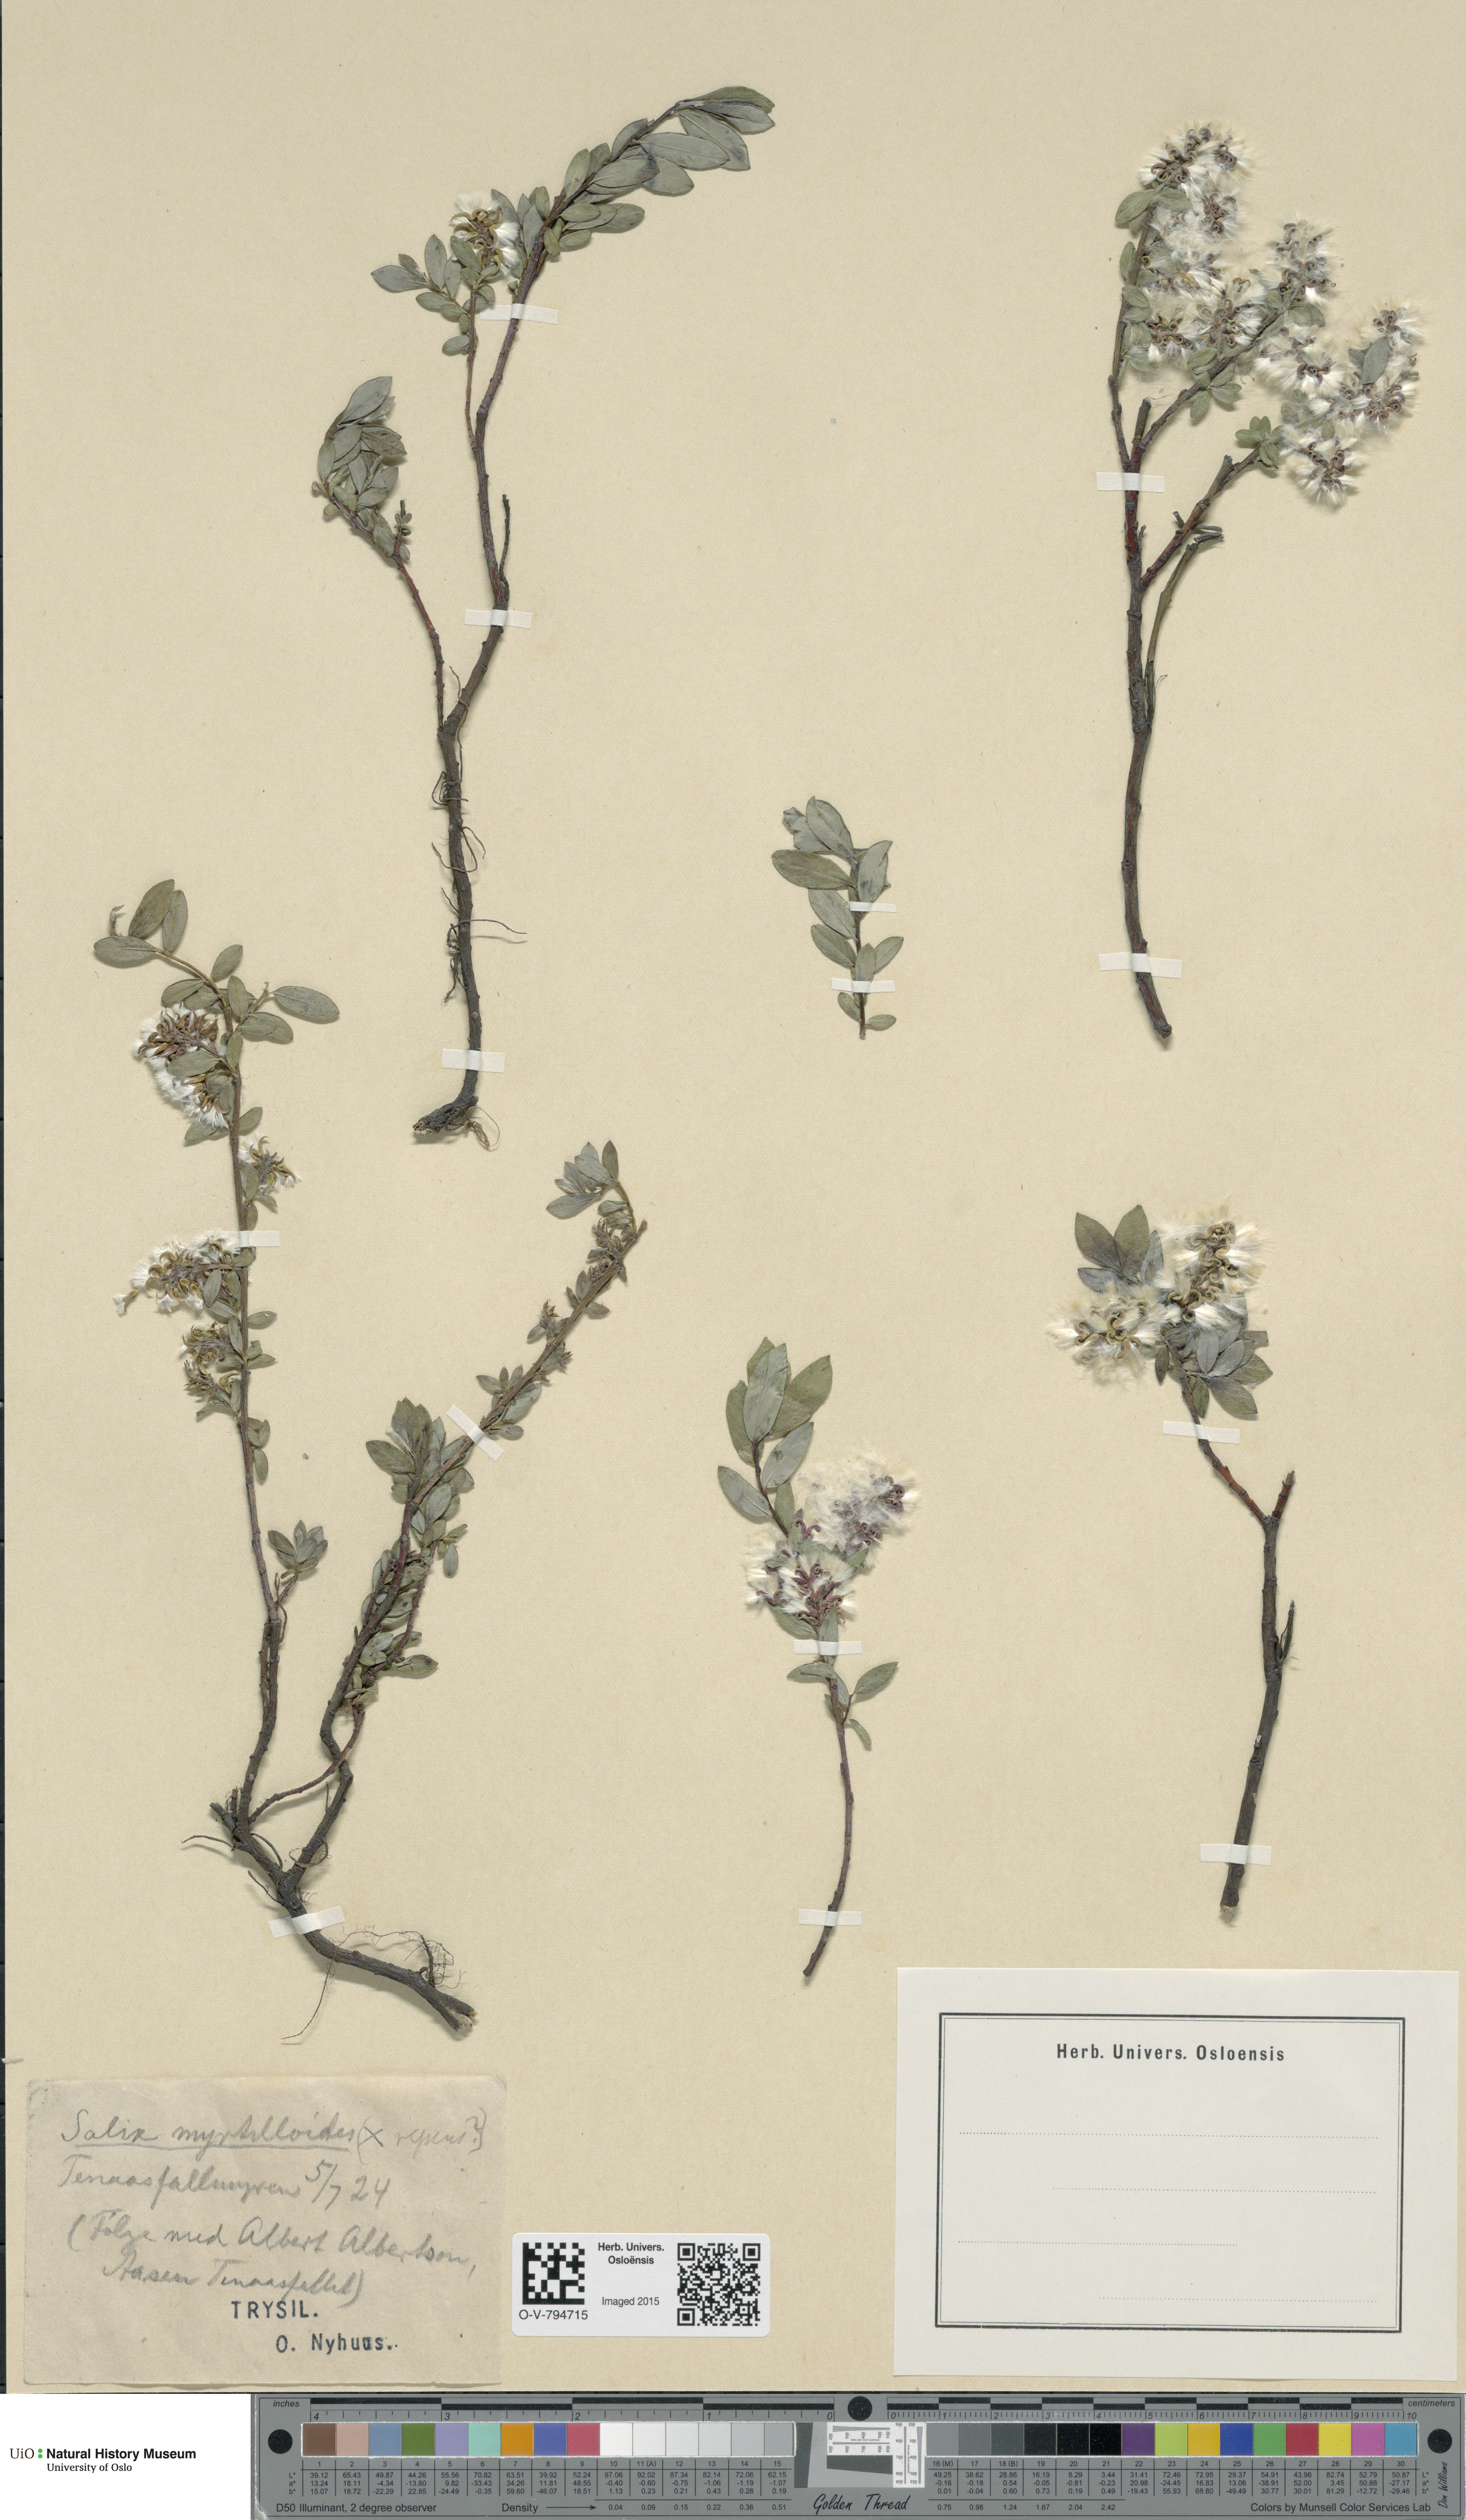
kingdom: Plantae
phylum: Tracheophyta
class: Magnoliopsida
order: Malpighiales
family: Salicaceae
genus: Salix
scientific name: Salix repens
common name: Creeping willow
